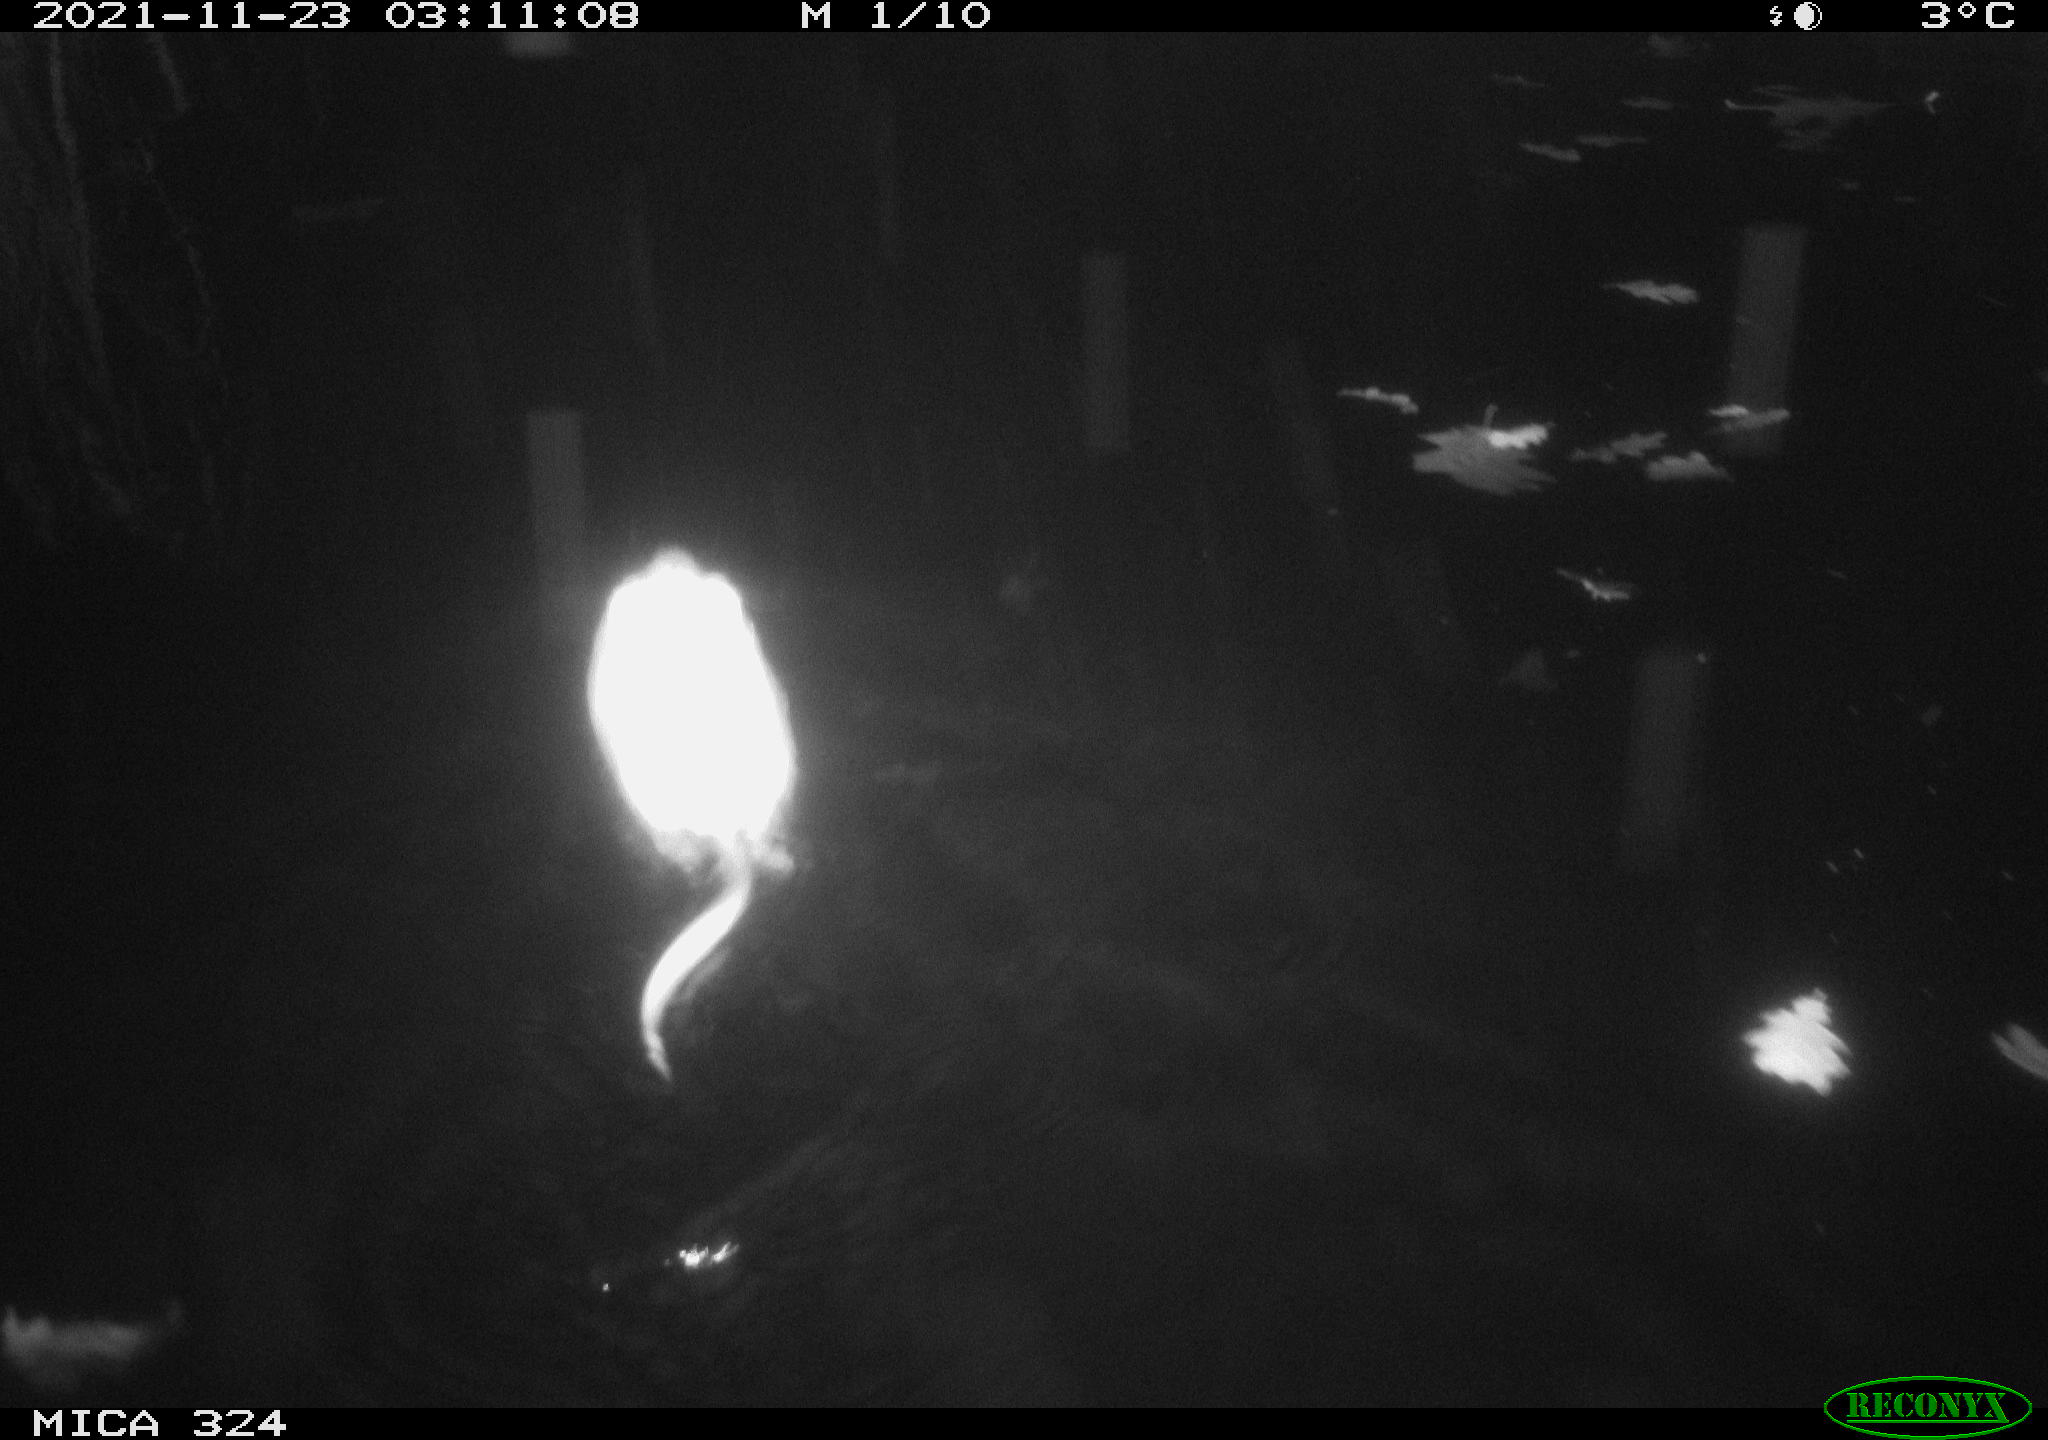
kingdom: Animalia
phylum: Chordata
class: Mammalia
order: Rodentia
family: Cricetidae
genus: Ondatra
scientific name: Ondatra zibethicus
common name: Muskrat
